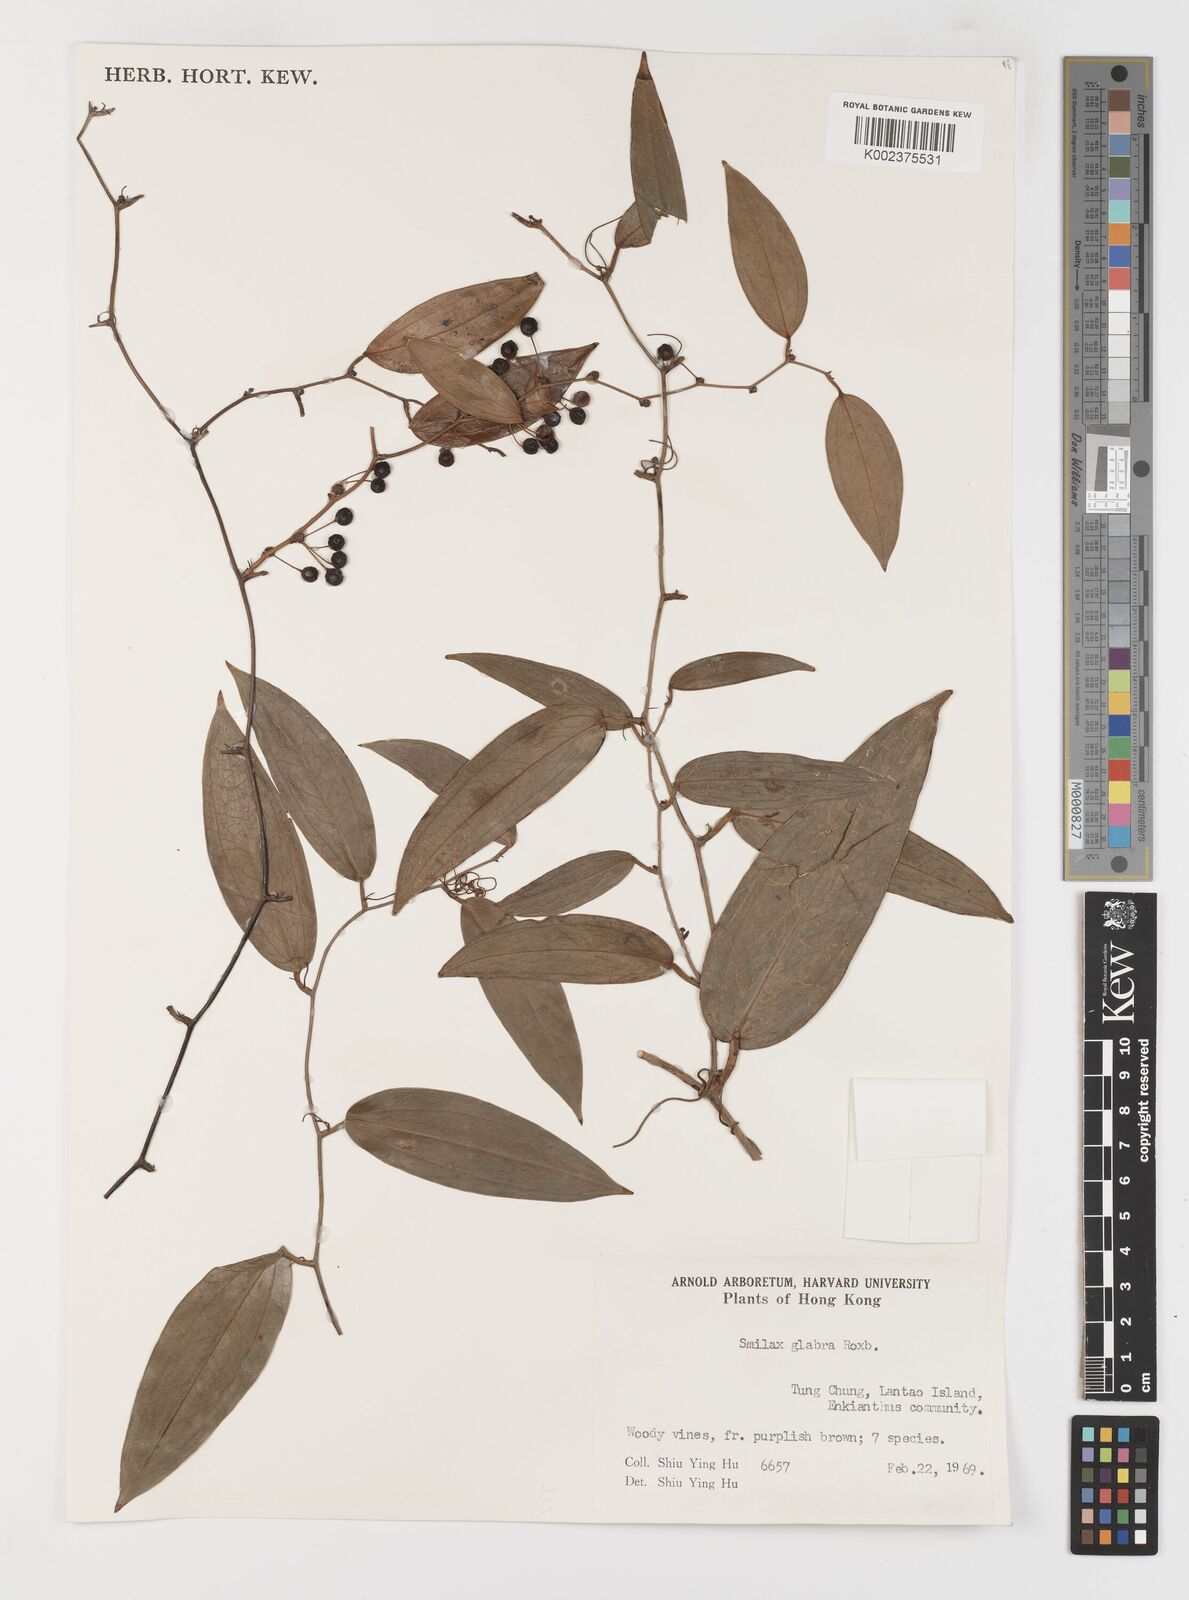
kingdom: Plantae
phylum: Tracheophyta
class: Liliopsida
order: Liliales
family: Smilacaceae
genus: Smilax
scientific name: Smilax laevis
